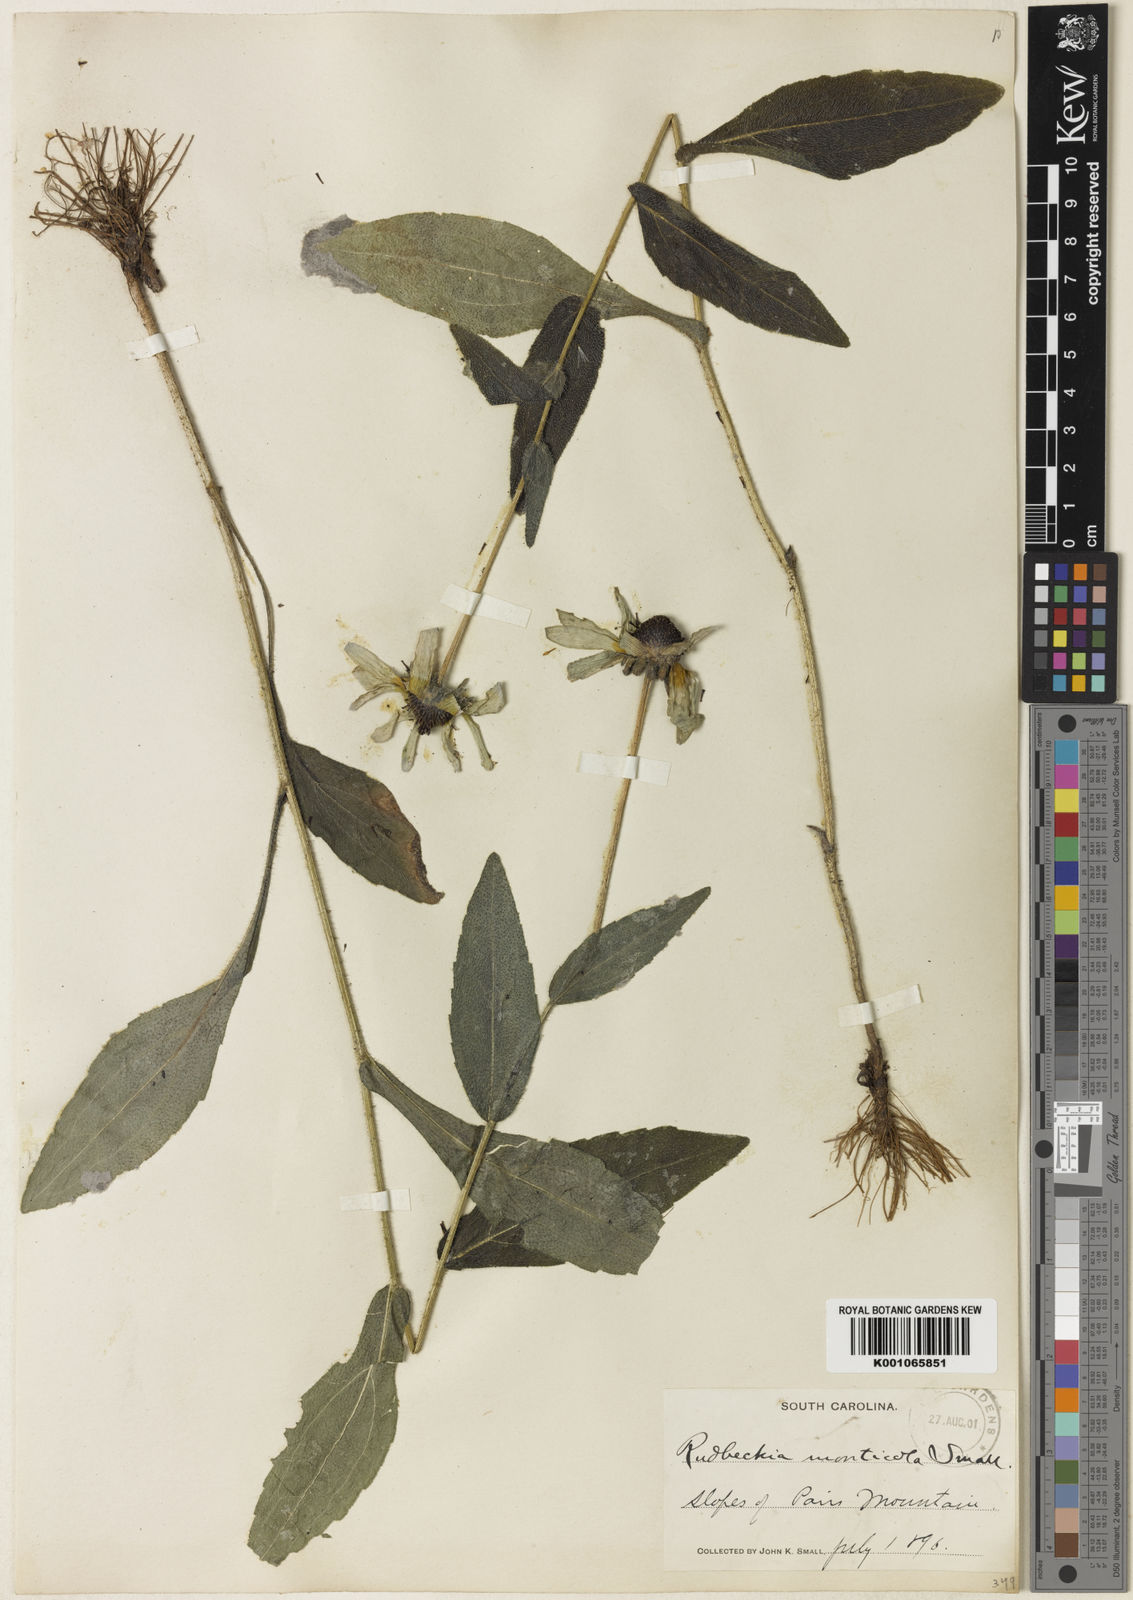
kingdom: Plantae
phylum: Tracheophyta
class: Magnoliopsida
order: Asterales
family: Asteraceae
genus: Rudbeckia
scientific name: Rudbeckia hirta
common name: Black-eyed-susan
